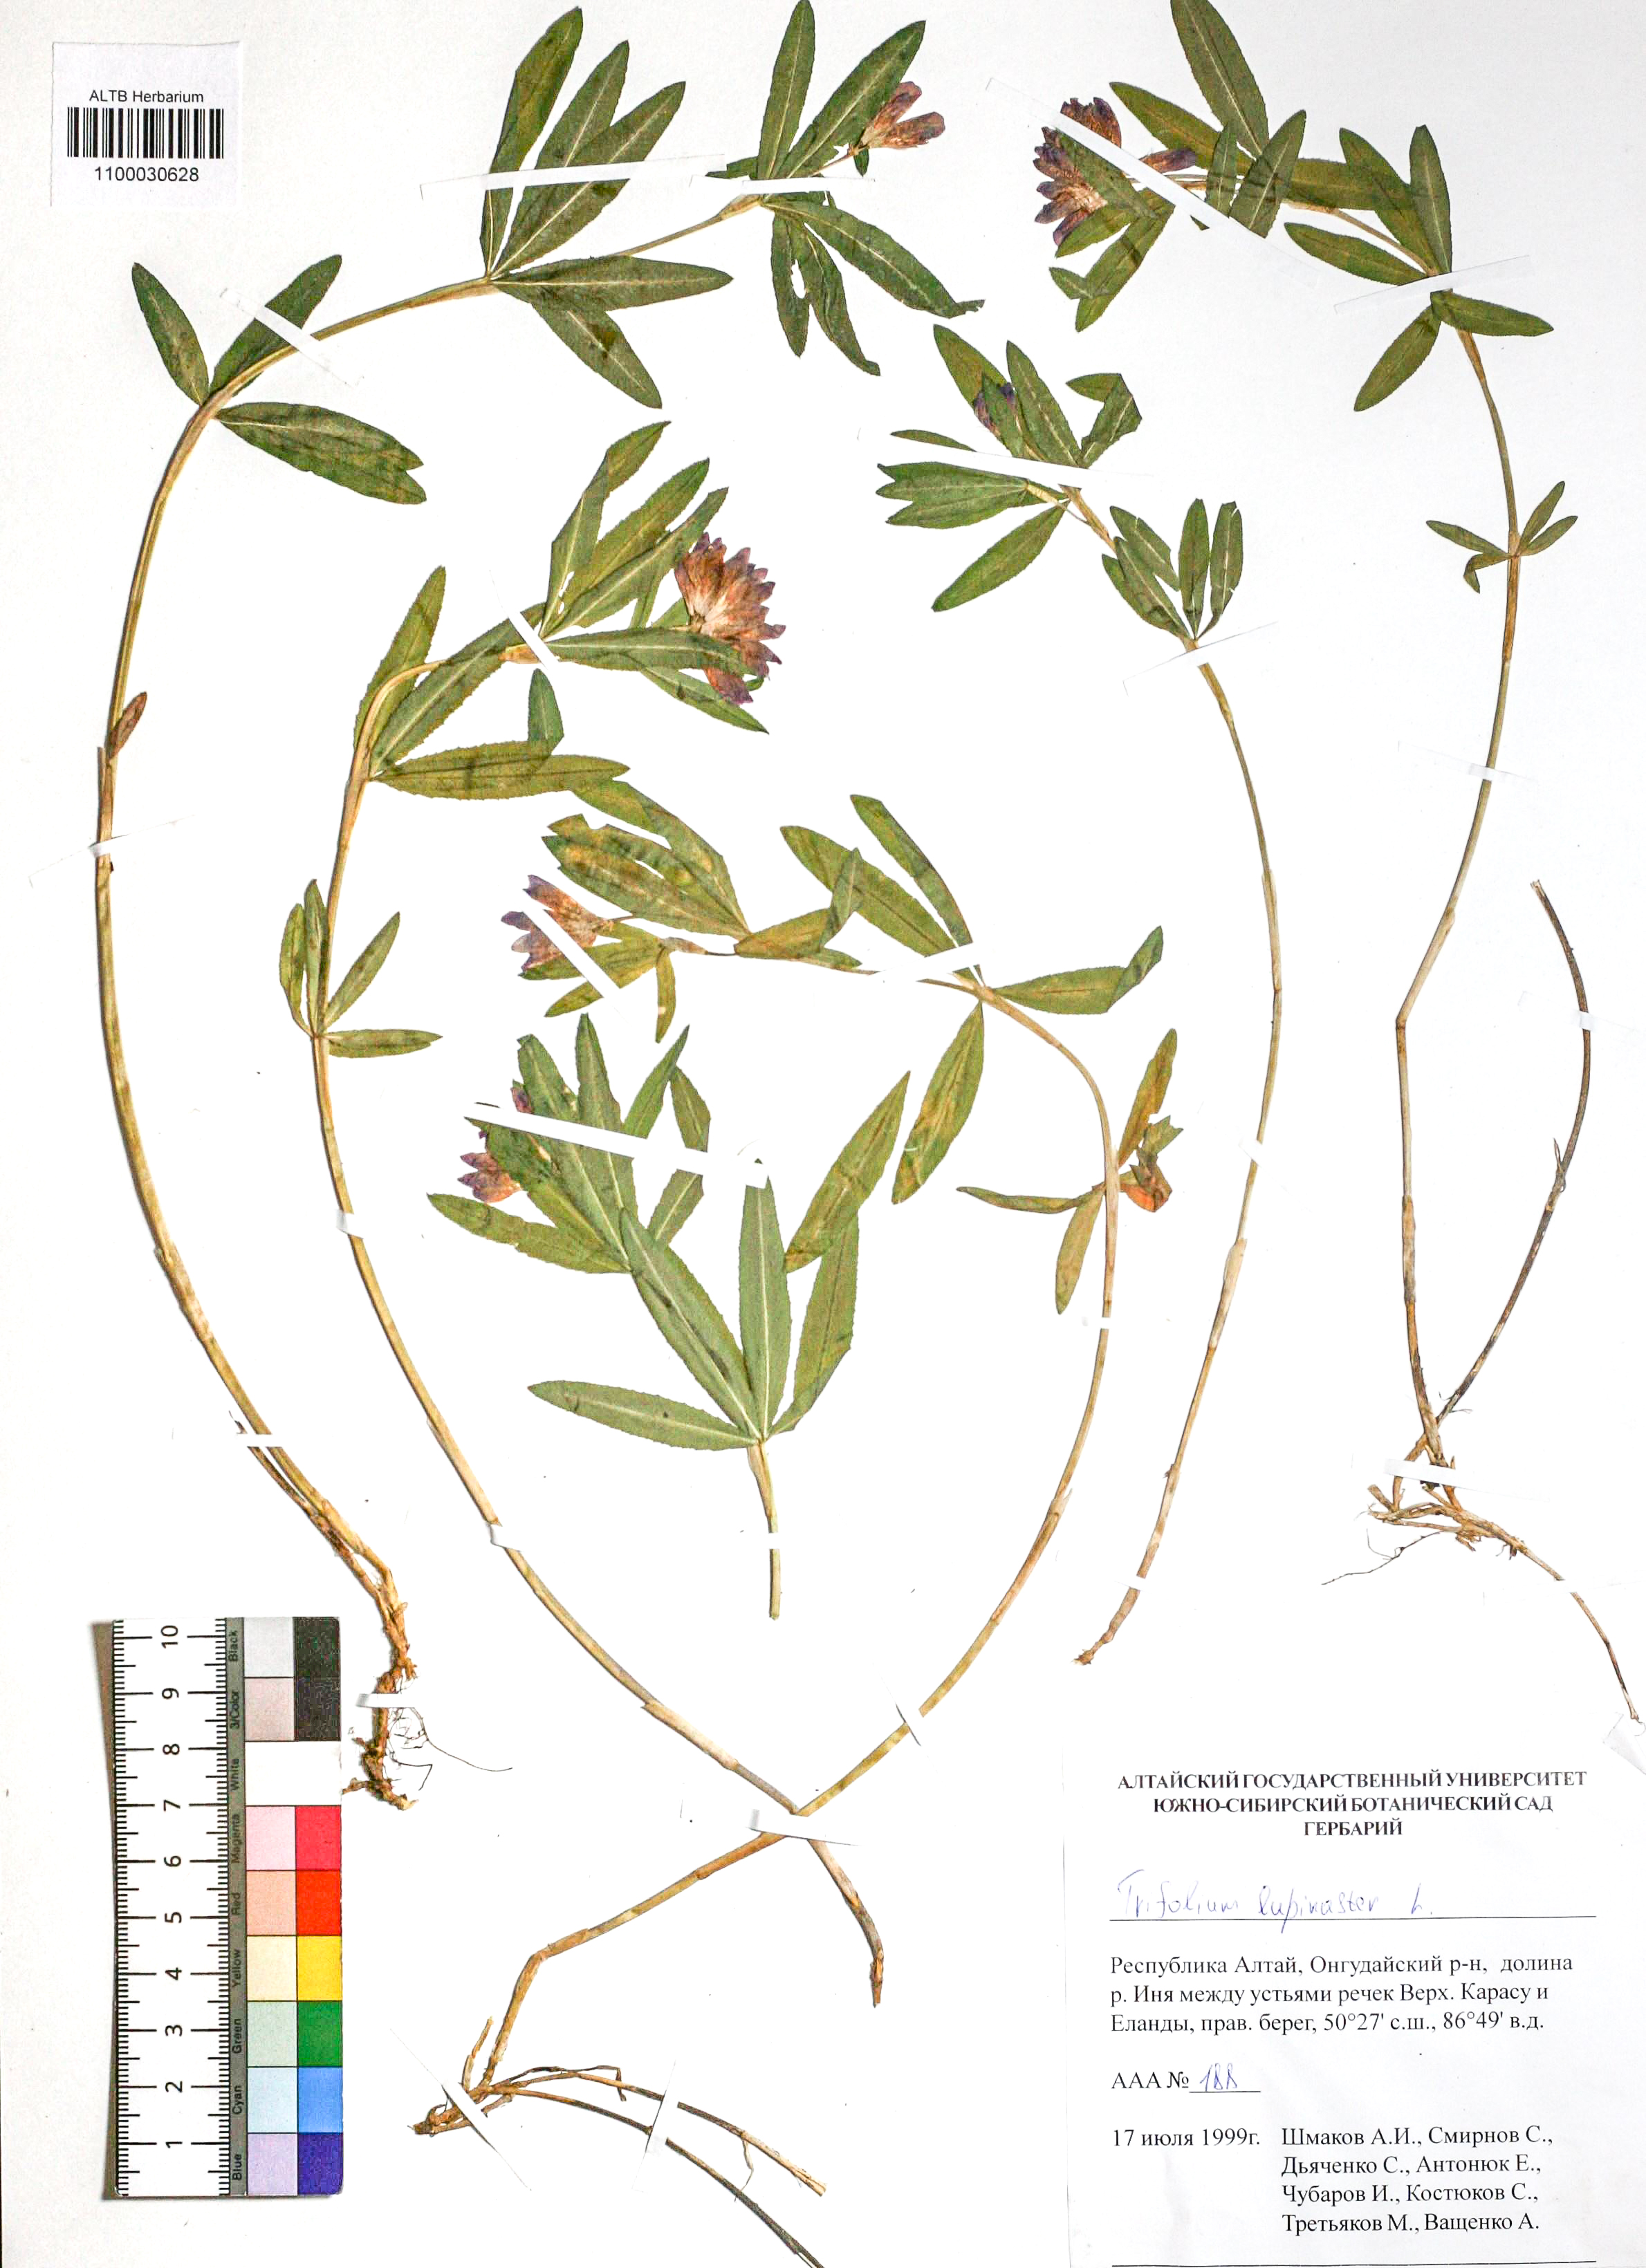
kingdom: Plantae
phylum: Tracheophyta
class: Magnoliopsida
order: Fabales
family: Fabaceae
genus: Trifolium
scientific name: Trifolium lupinaster
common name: Lupine clover
